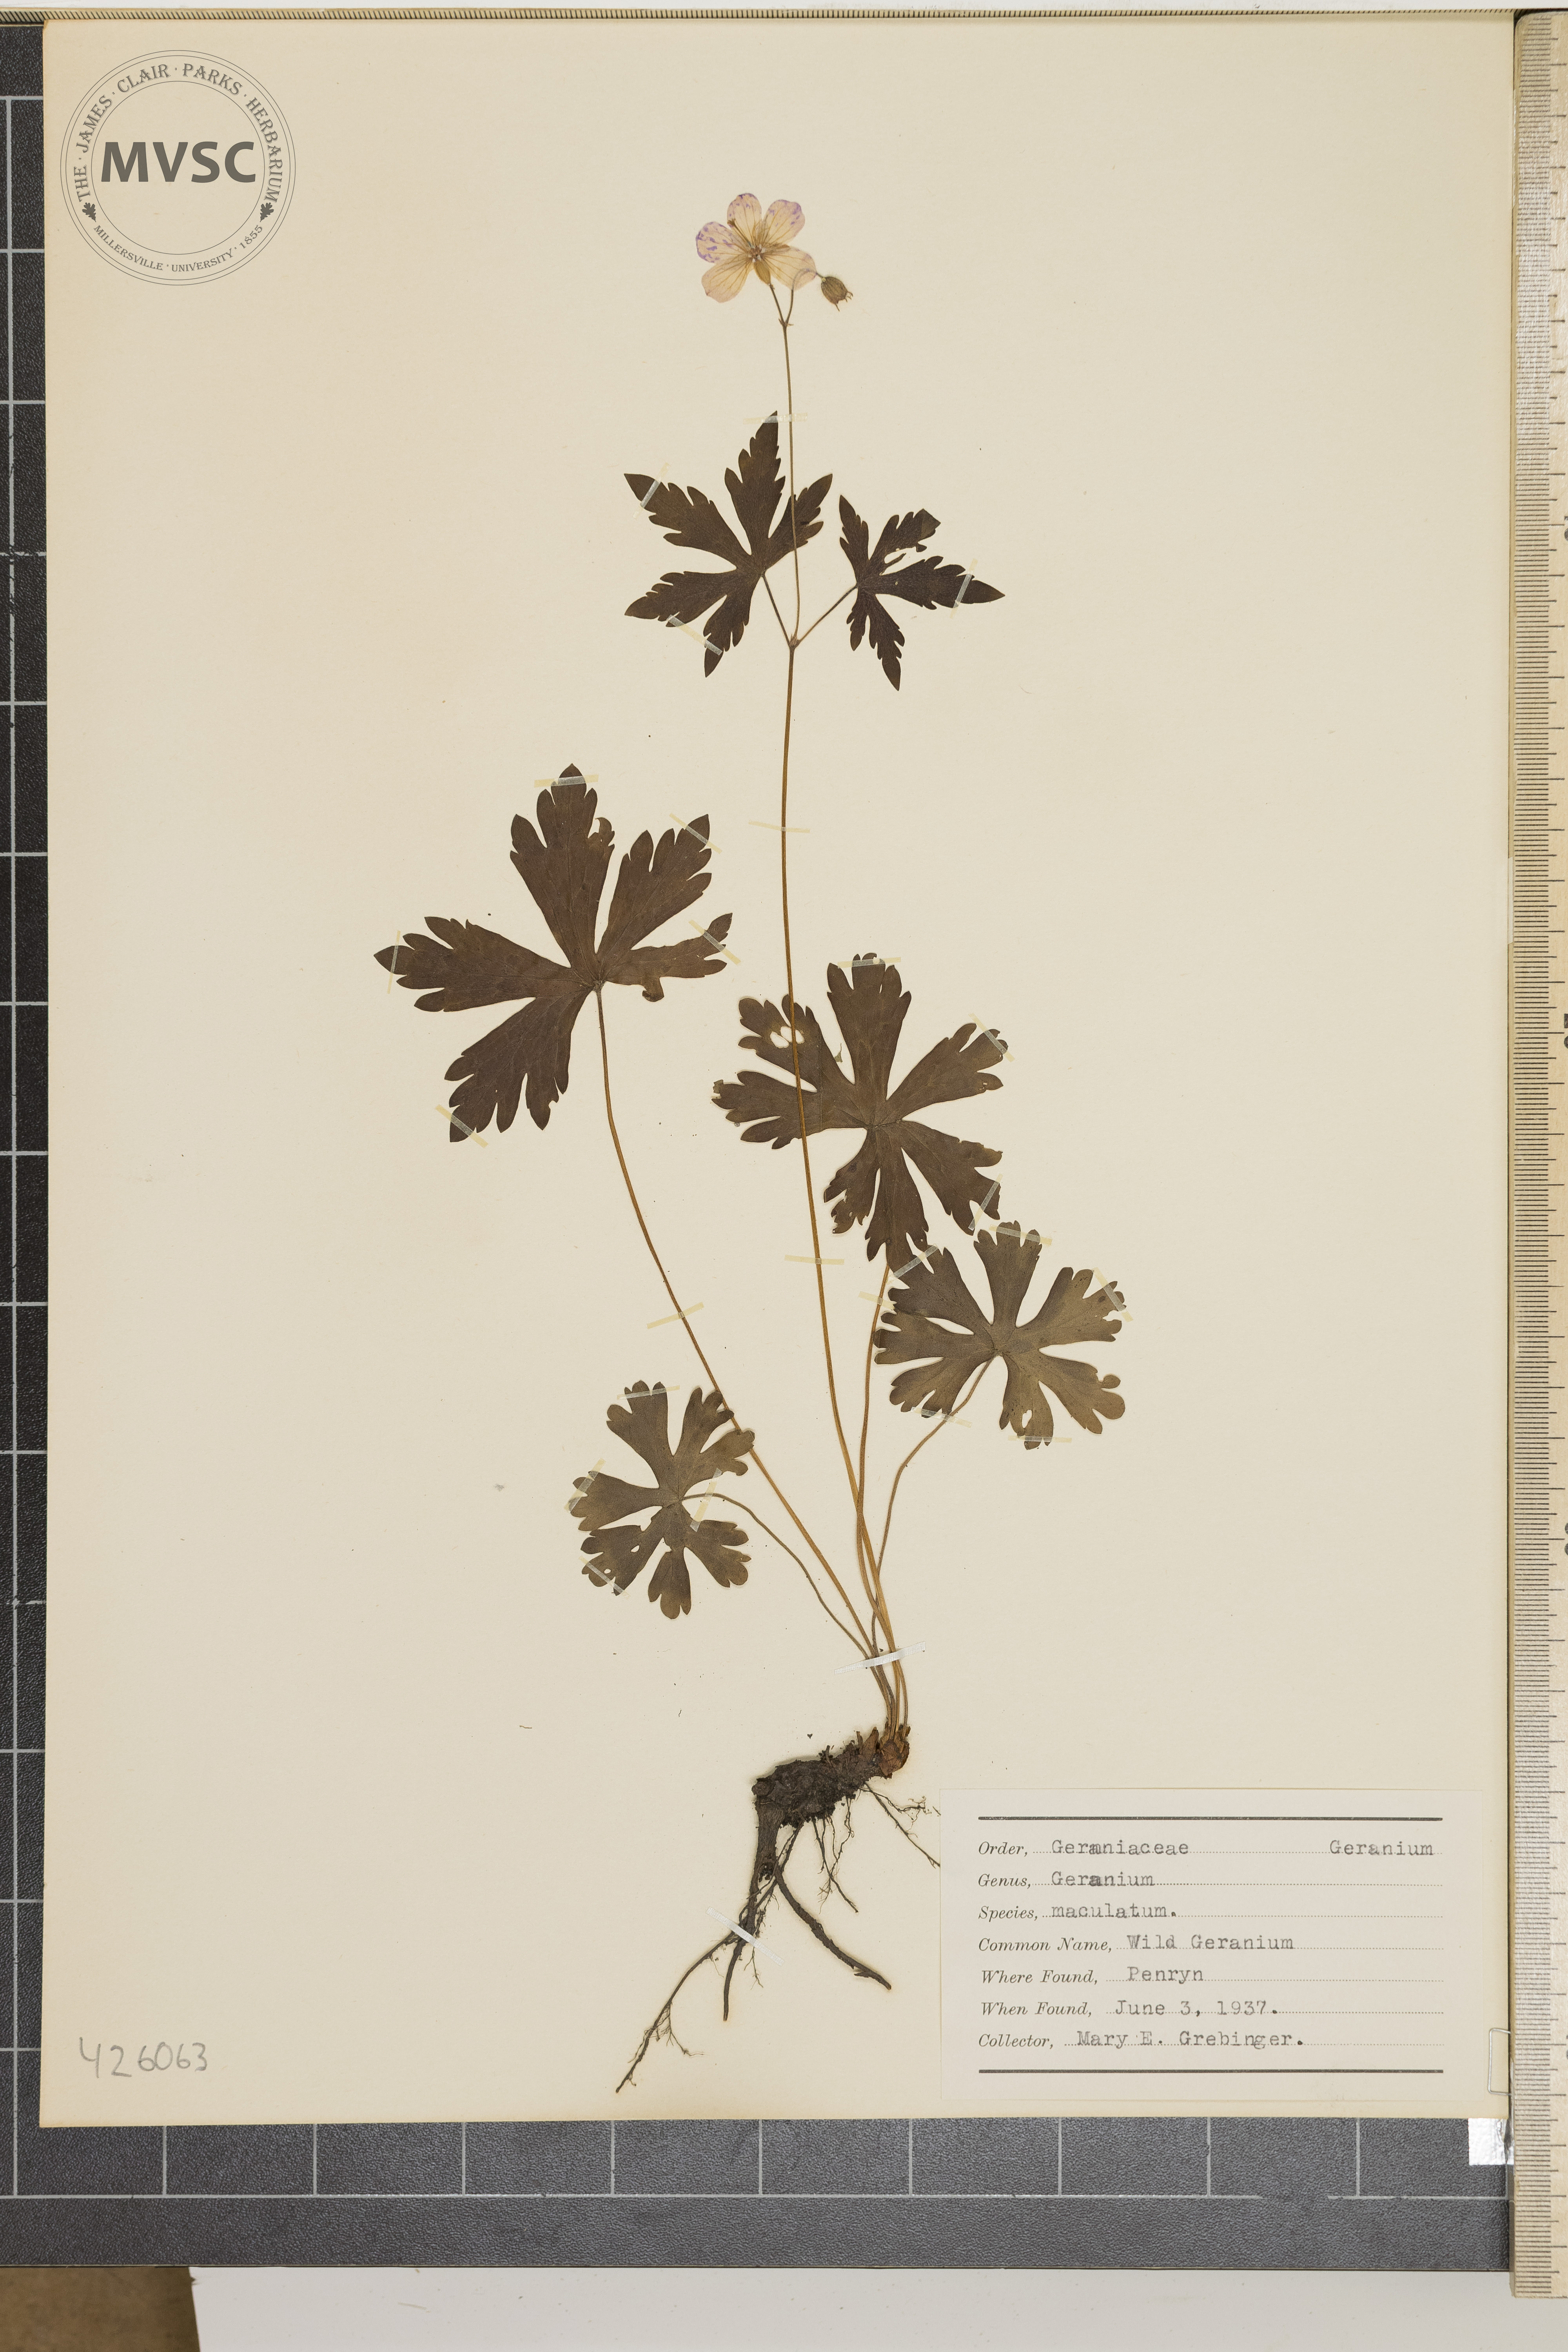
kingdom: Plantae
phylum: Tracheophyta
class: Magnoliopsida
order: Geraniales
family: Geraniaceae
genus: Geranium
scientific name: Geranium maculatum
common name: Wild geranium
